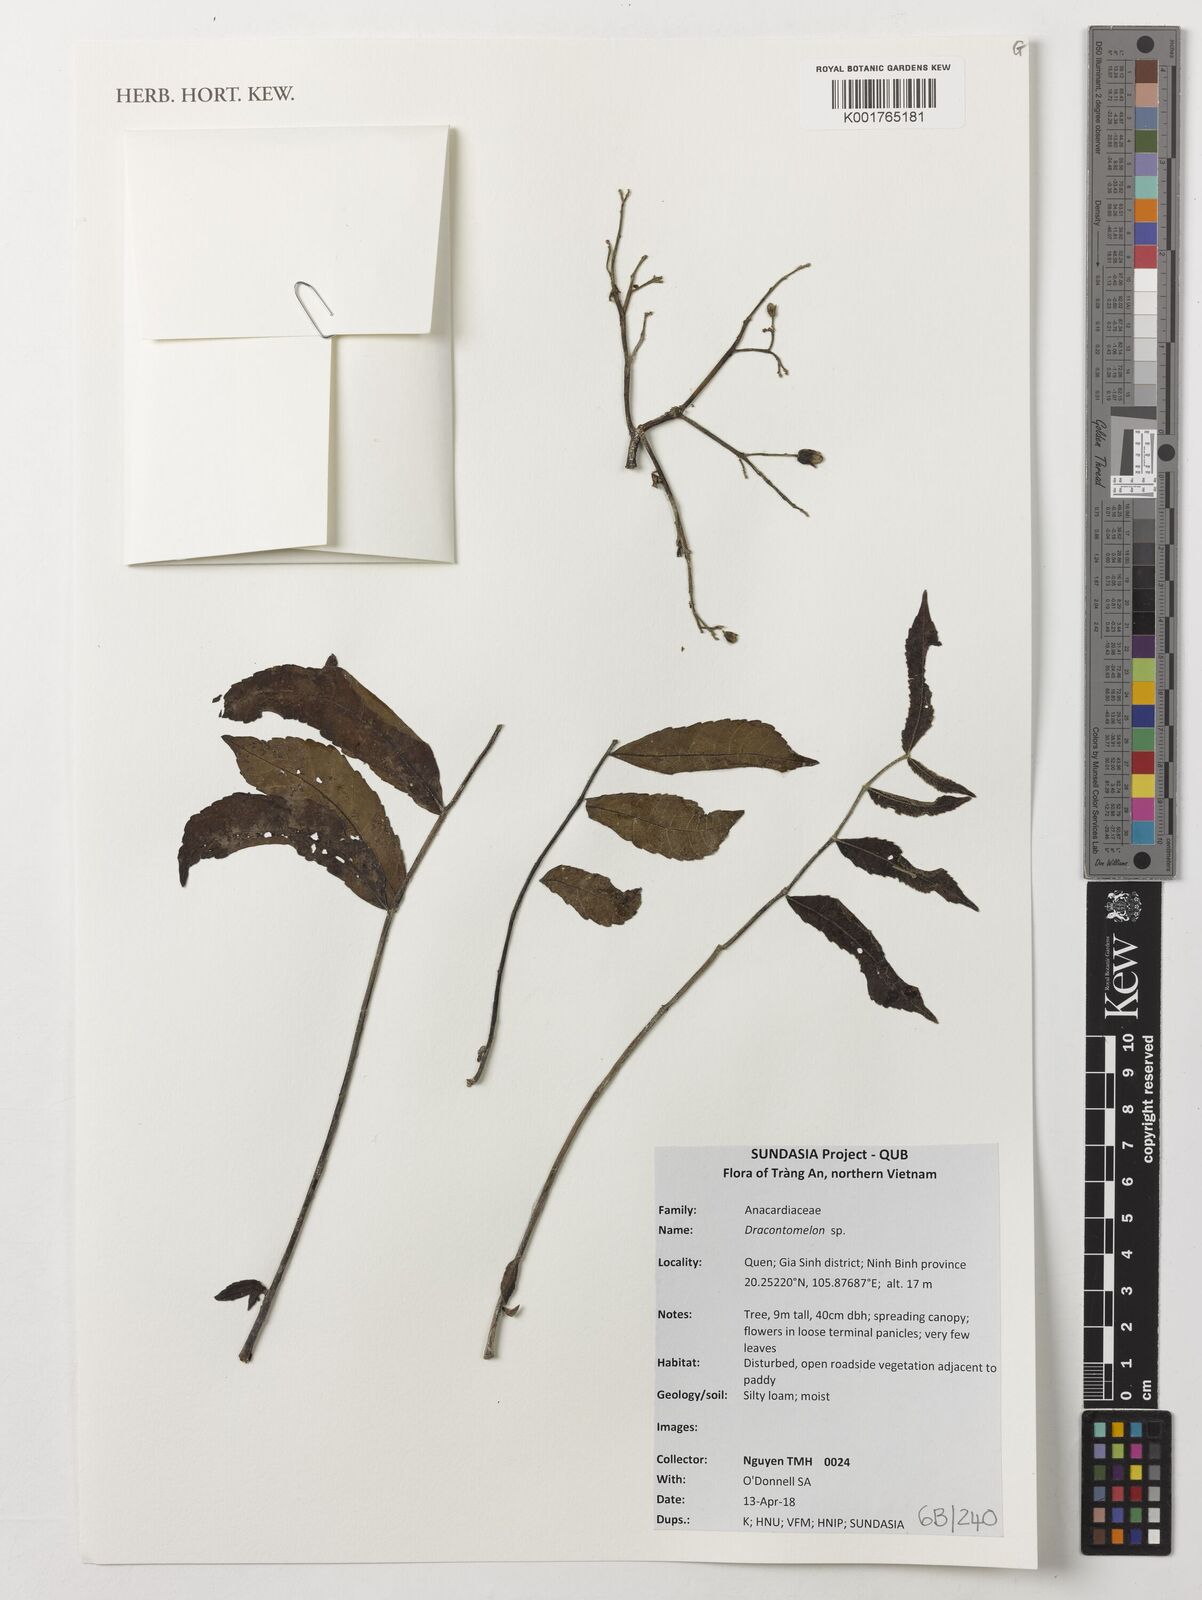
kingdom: Plantae
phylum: Tracheophyta
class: Magnoliopsida
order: Sapindales
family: Anacardiaceae
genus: Dracontomelon
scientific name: Dracontomelon
